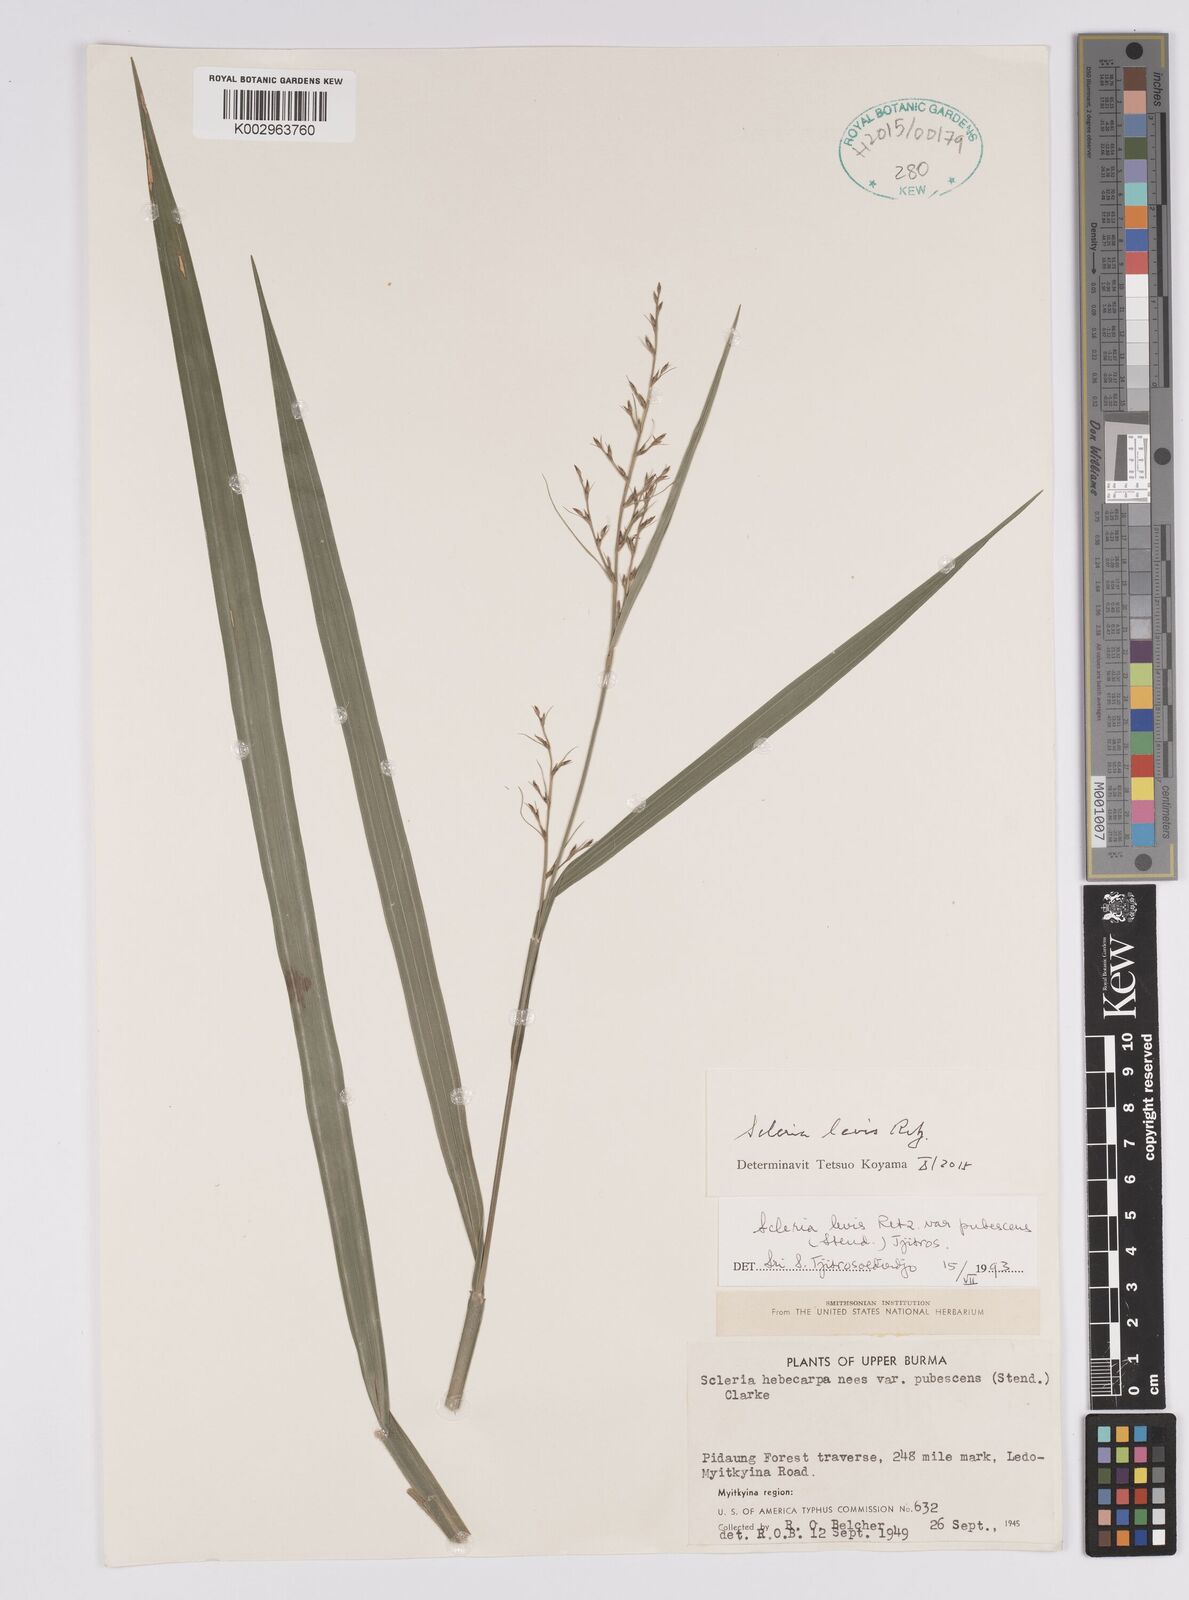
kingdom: Plantae
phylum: Tracheophyta
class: Liliopsida
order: Poales
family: Cyperaceae
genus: Scleria
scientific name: Scleria levis
